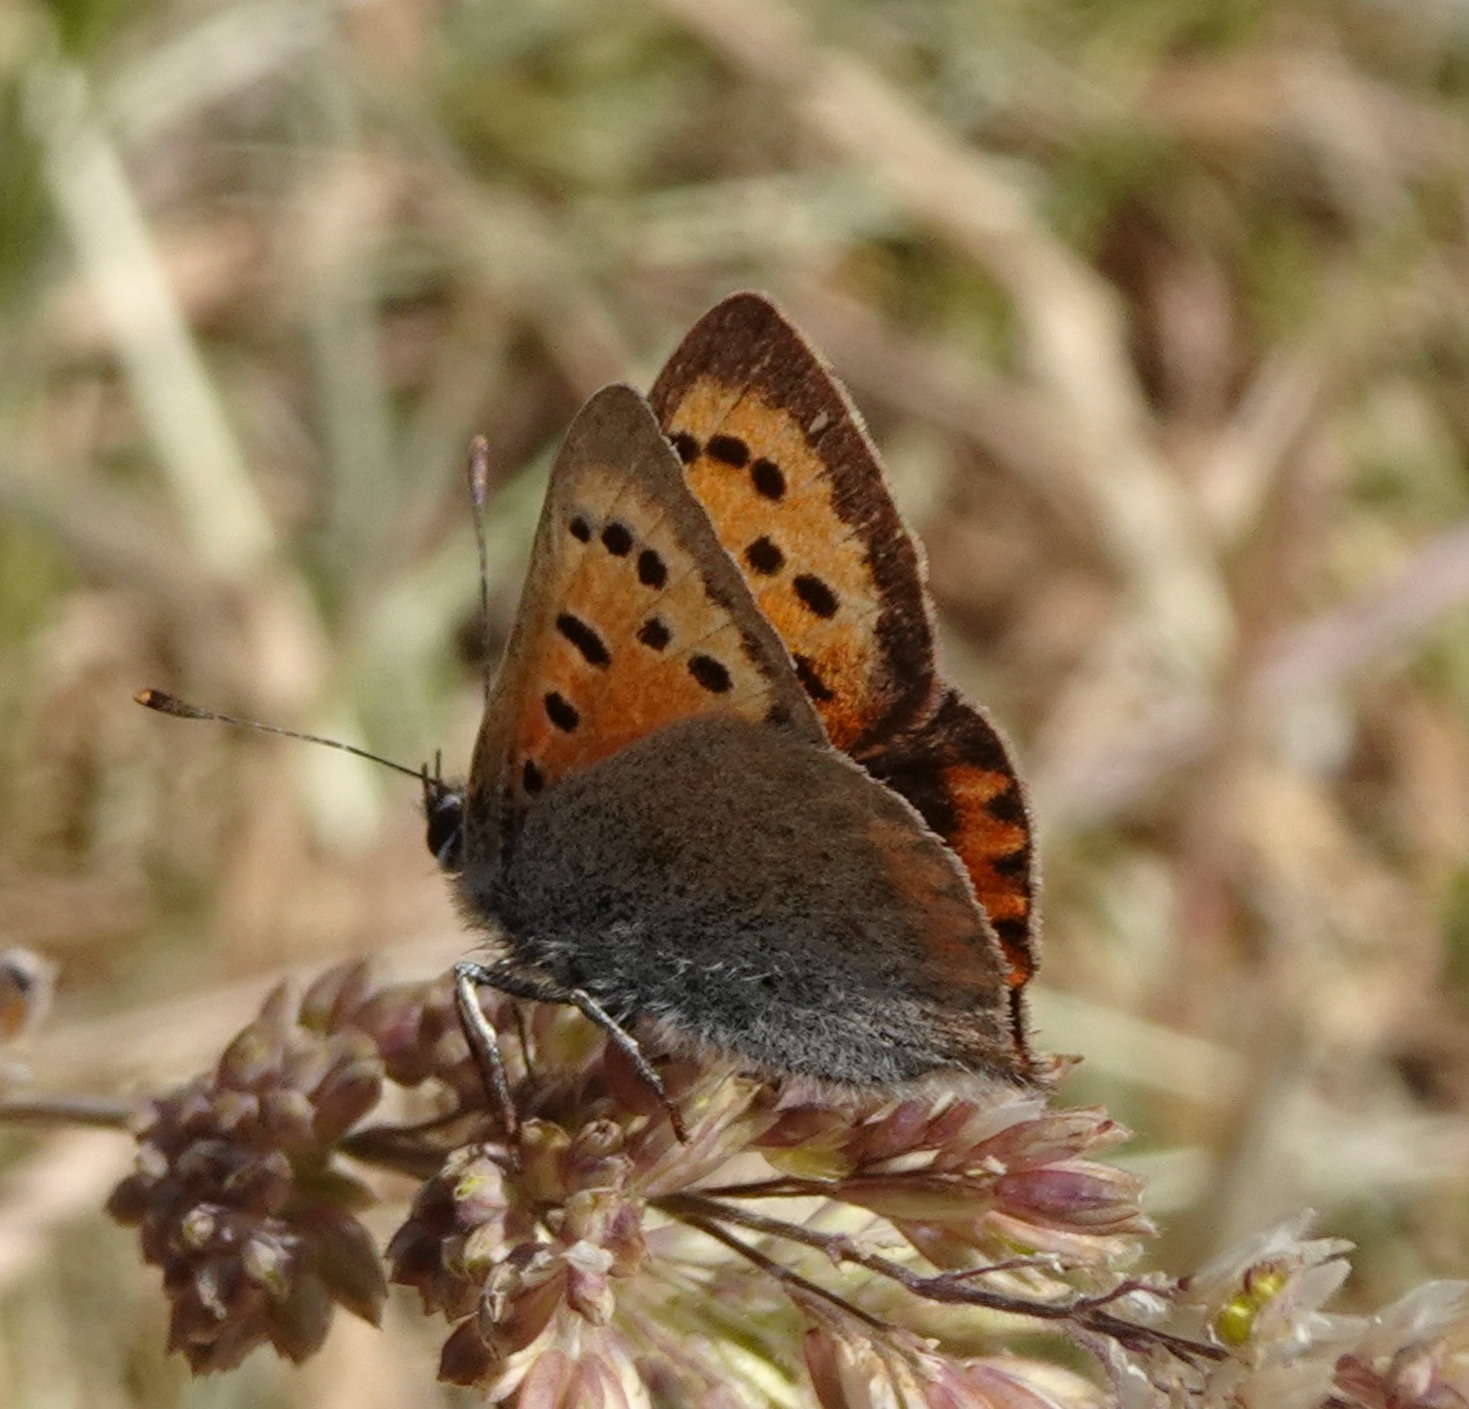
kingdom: Animalia
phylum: Arthropoda
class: Insecta
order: Lepidoptera
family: Lycaenidae
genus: Lycaena
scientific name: Lycaena phlaeas
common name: Lille ildfugl
